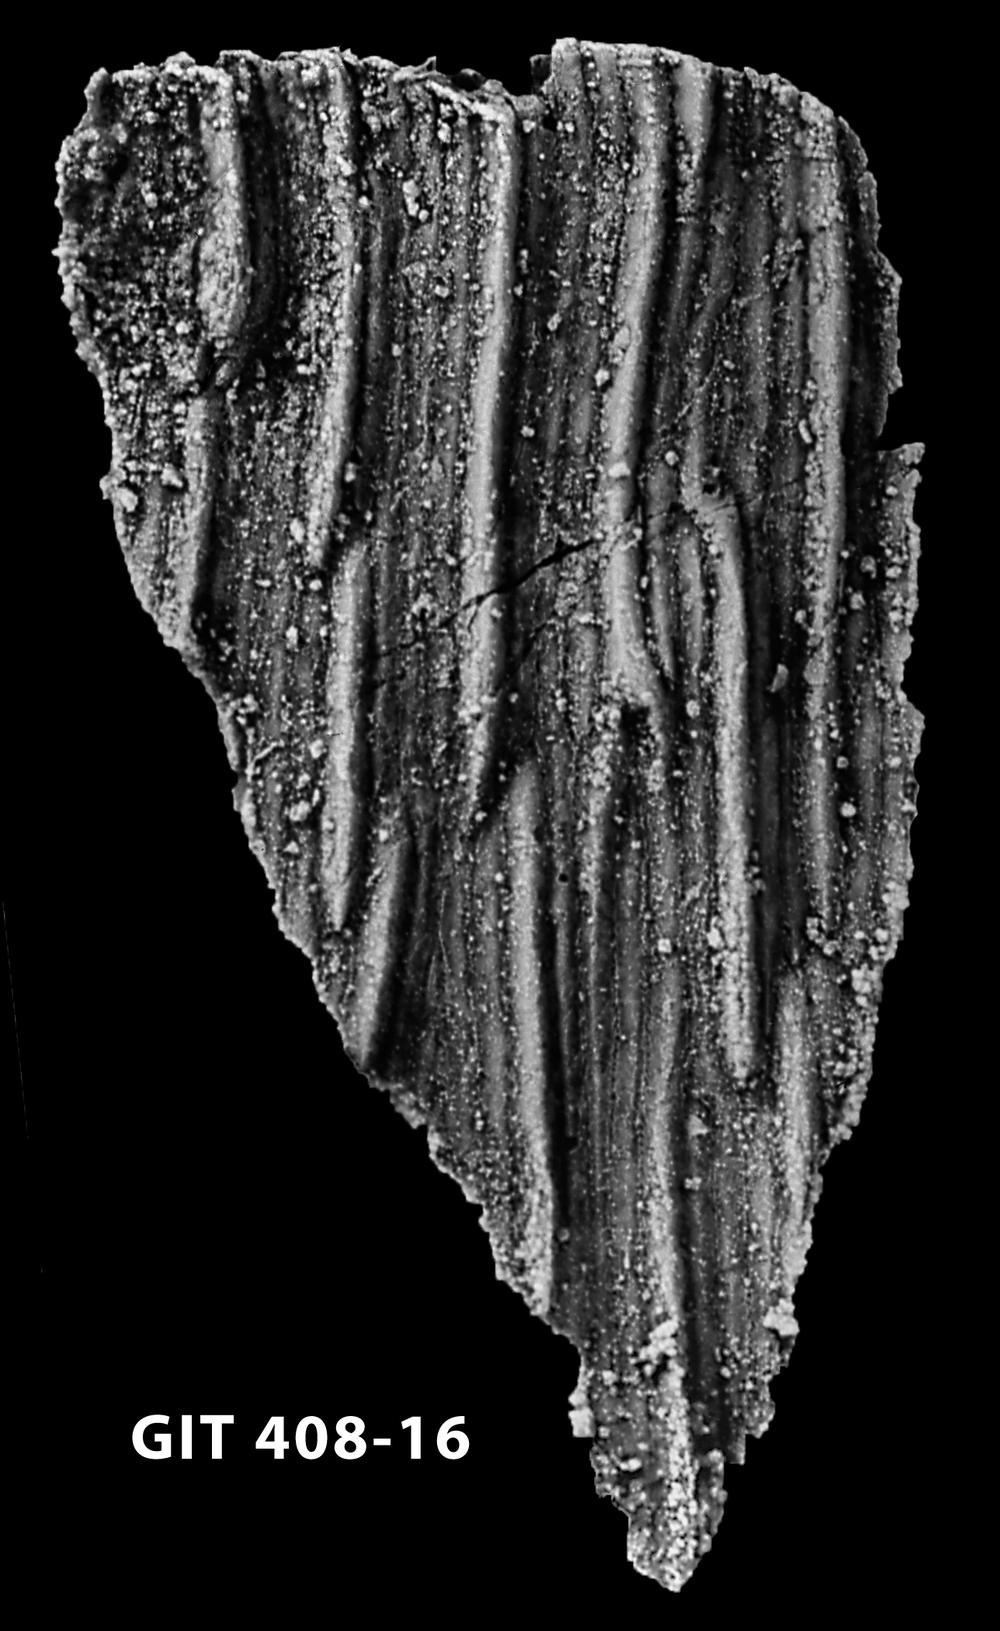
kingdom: Animalia
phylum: Chordata
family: Cyathaspididae
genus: Cyathaspis
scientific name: Cyathaspis
